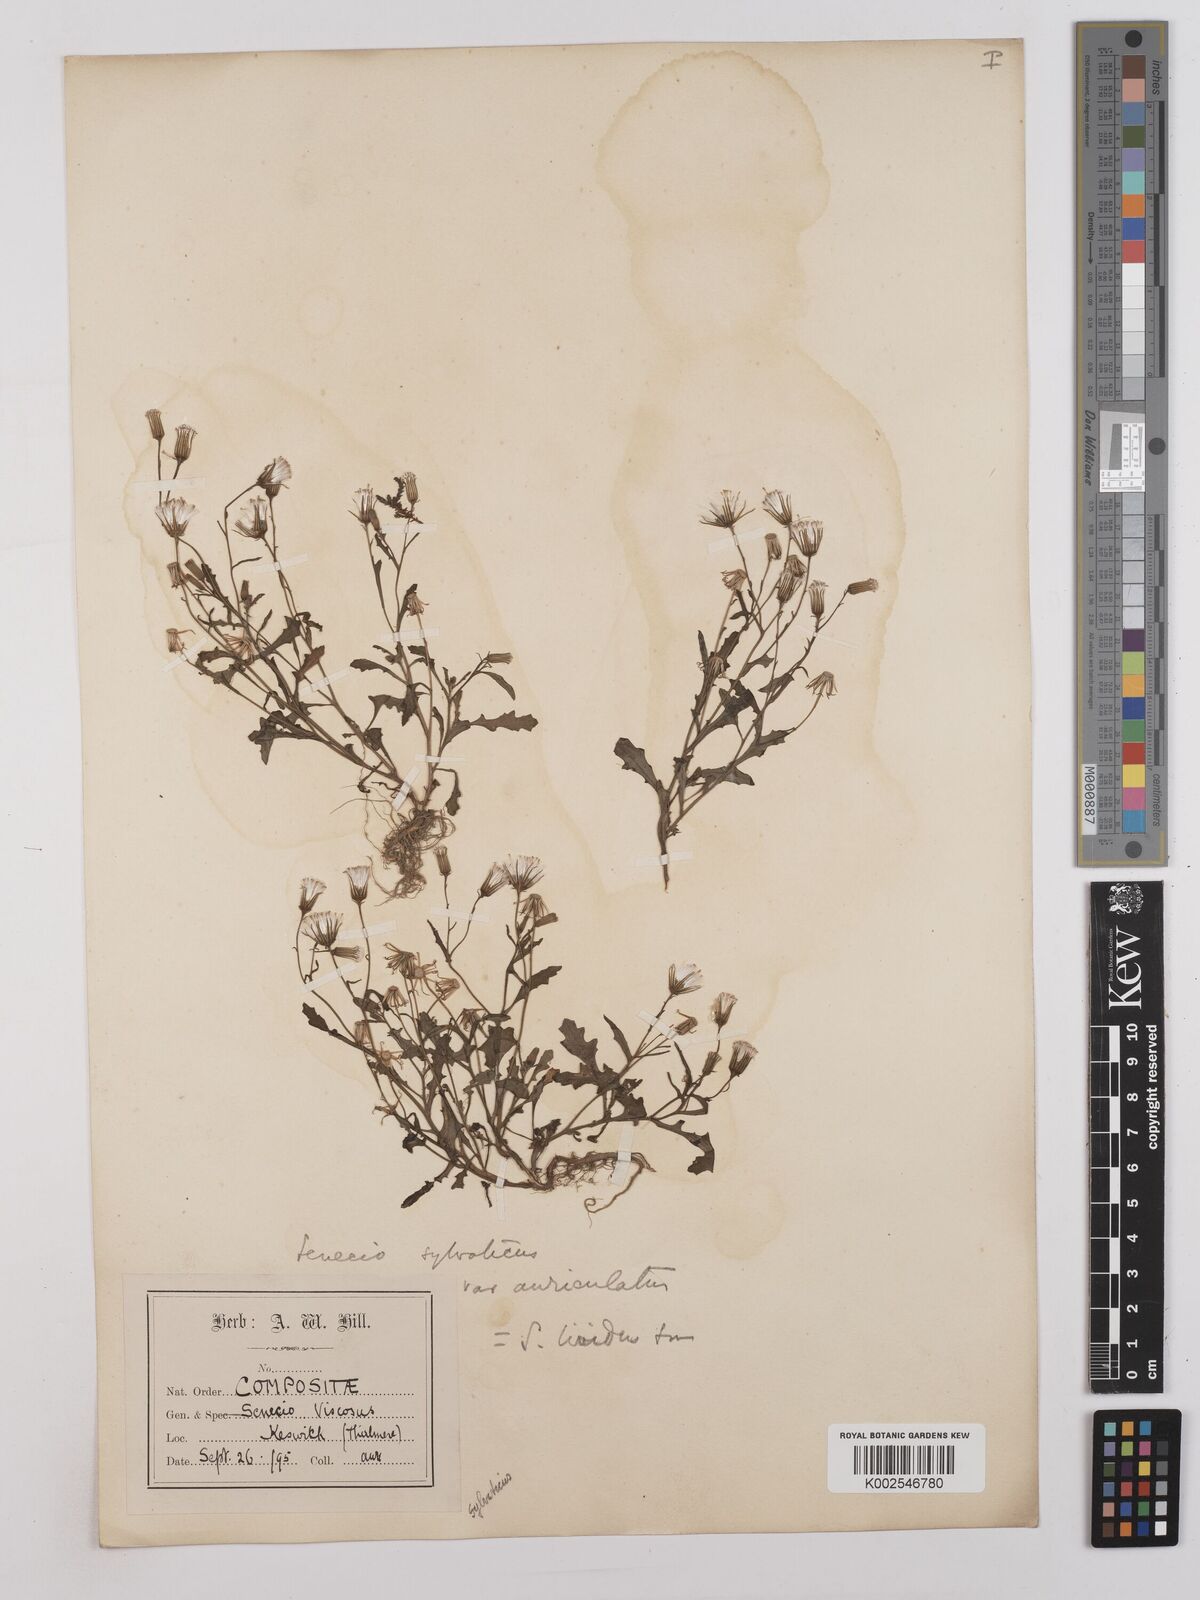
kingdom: Plantae
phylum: Tracheophyta
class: Magnoliopsida
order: Asterales
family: Asteraceae
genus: Senecio
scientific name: Senecio sylvaticus
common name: Woodland ragwort
